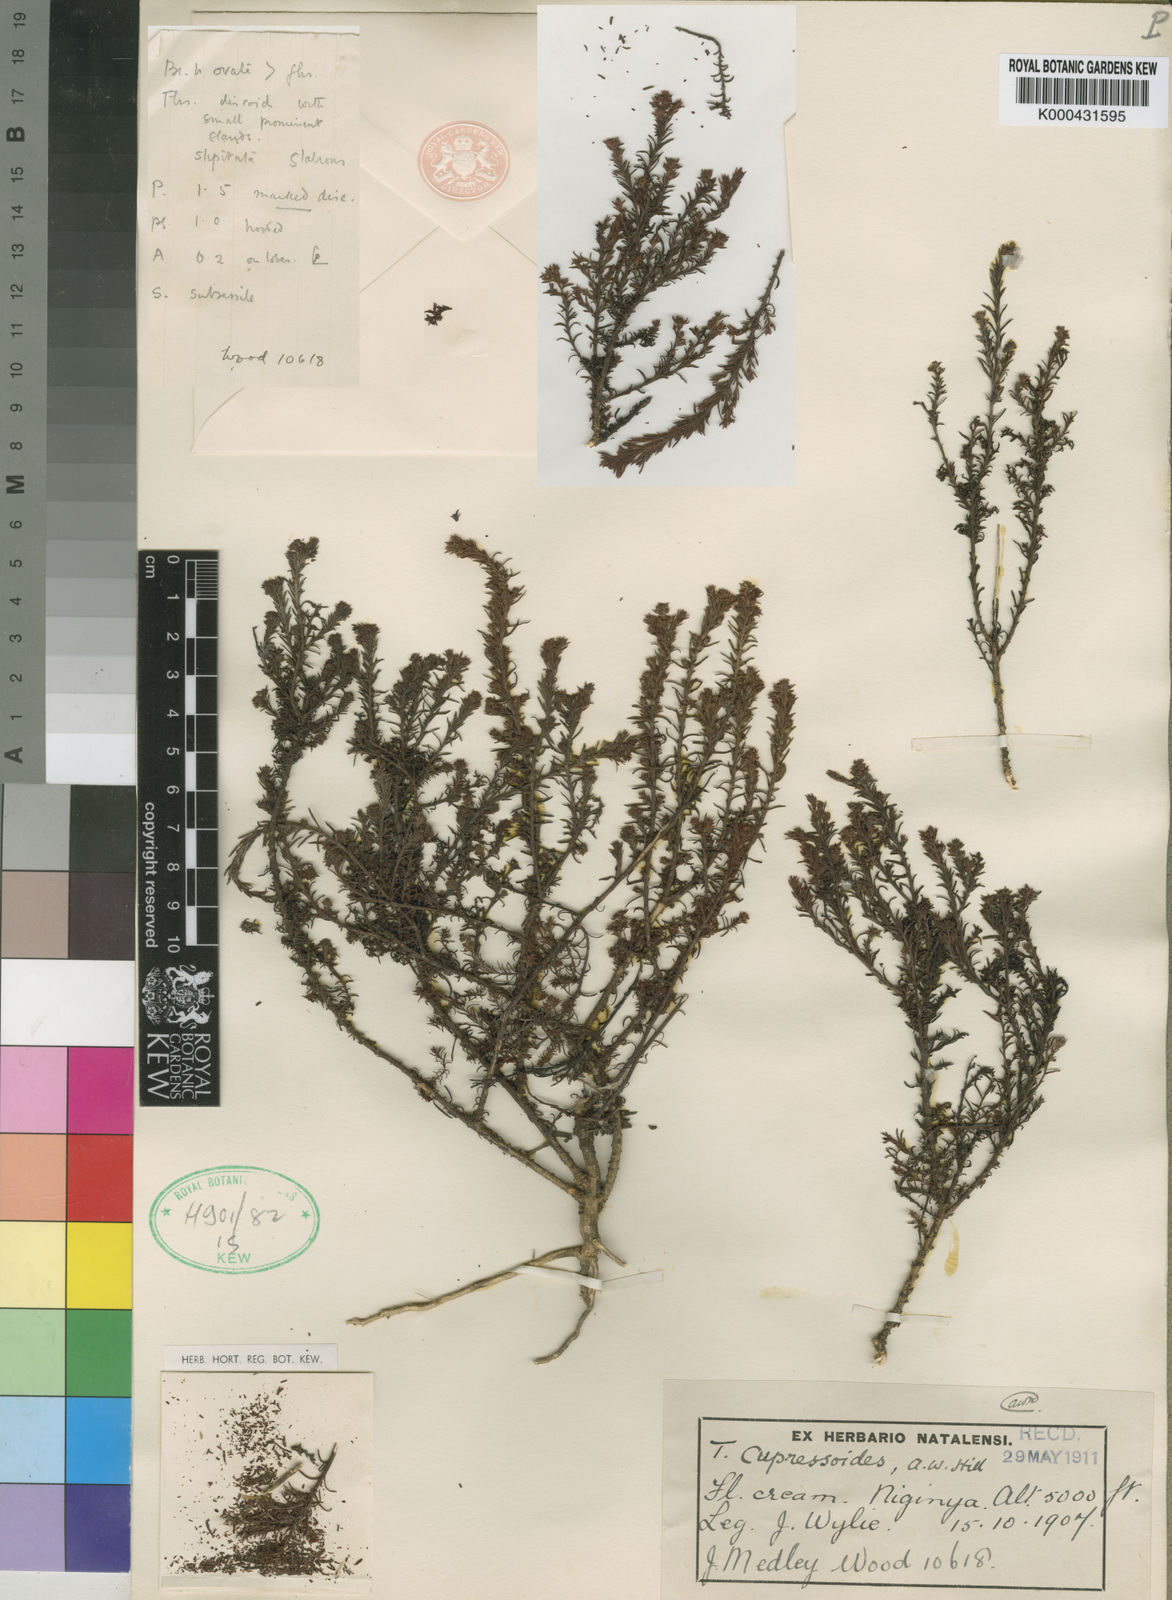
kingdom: Plantae
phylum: Tracheophyta
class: Magnoliopsida
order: Santalales
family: Thesiaceae
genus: Thesium
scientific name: Thesium cupressoides
